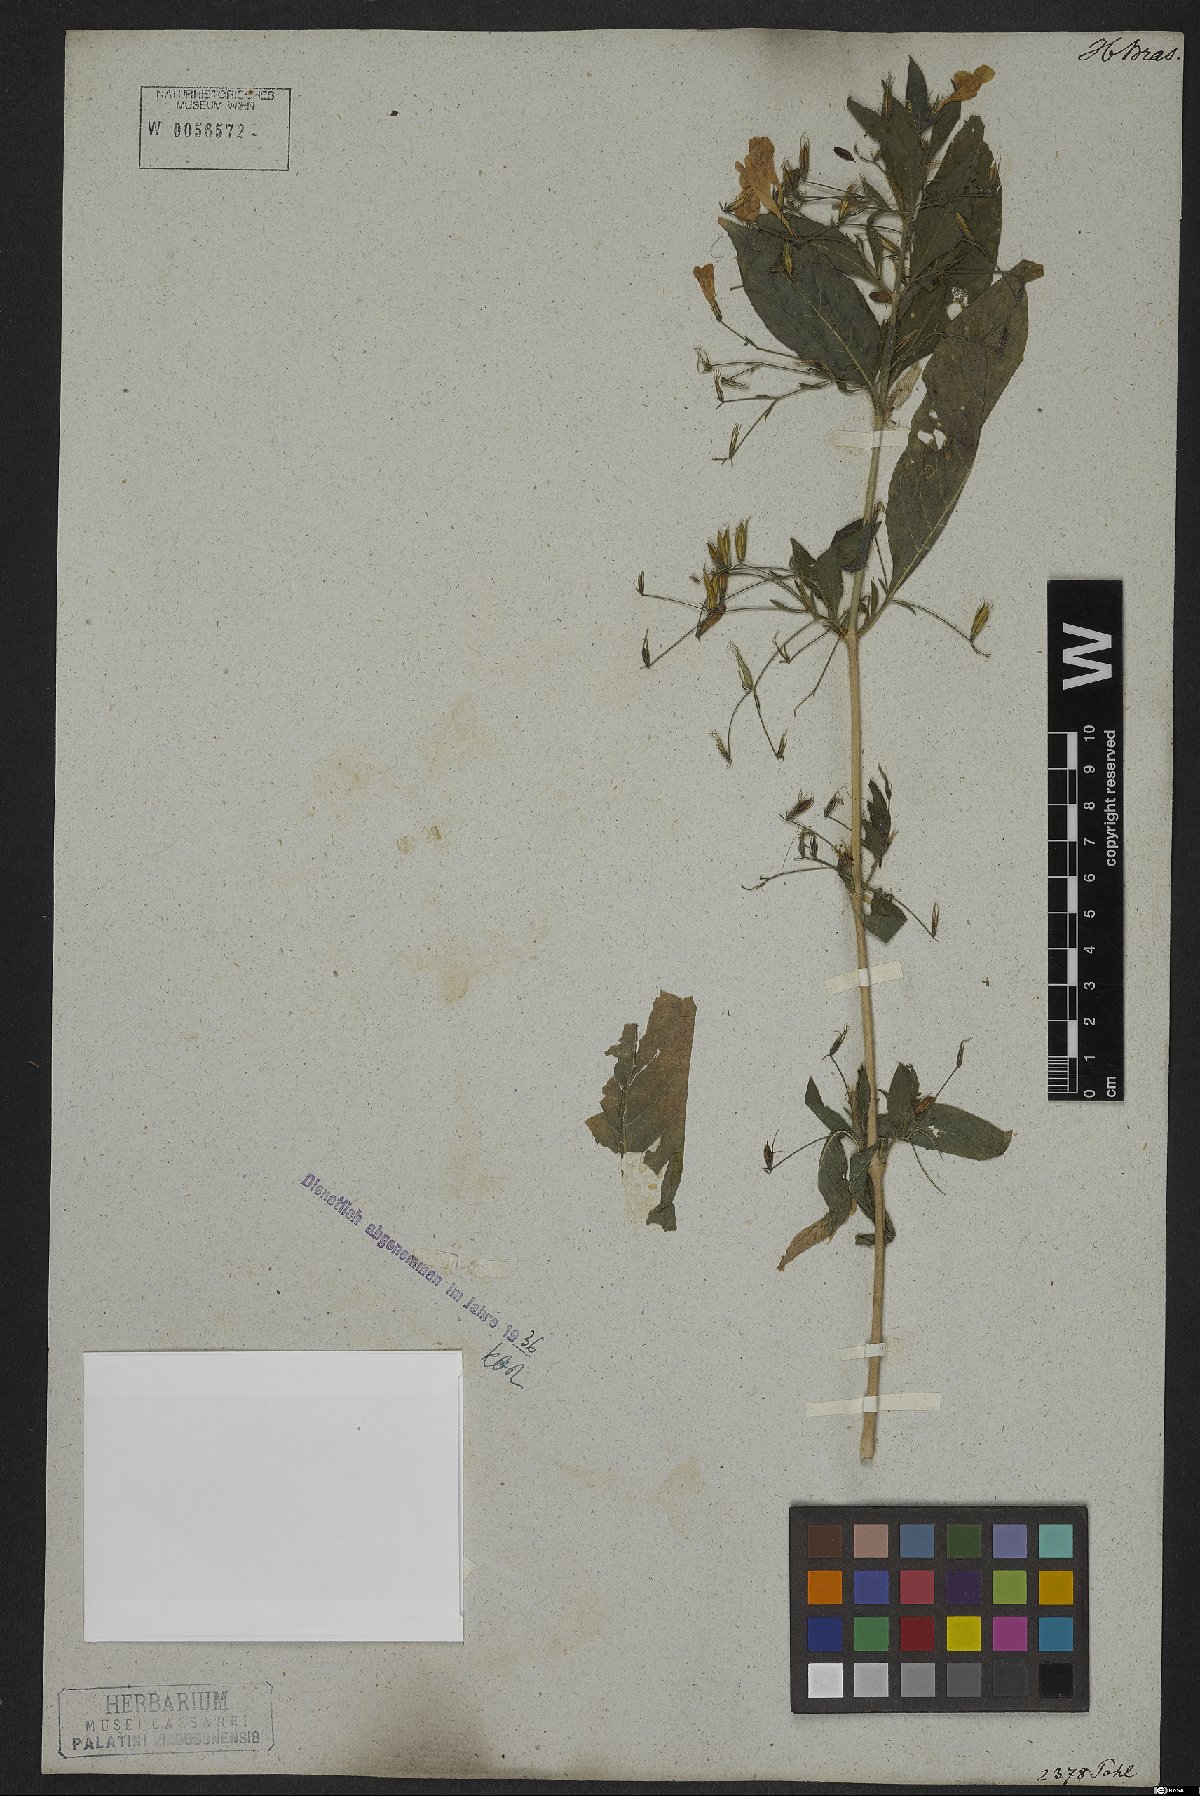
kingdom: Plantae
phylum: Tracheophyta
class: Magnoliopsida
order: Lamiales
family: Acanthaceae
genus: Ruellia
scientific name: Ruellia viscidula
